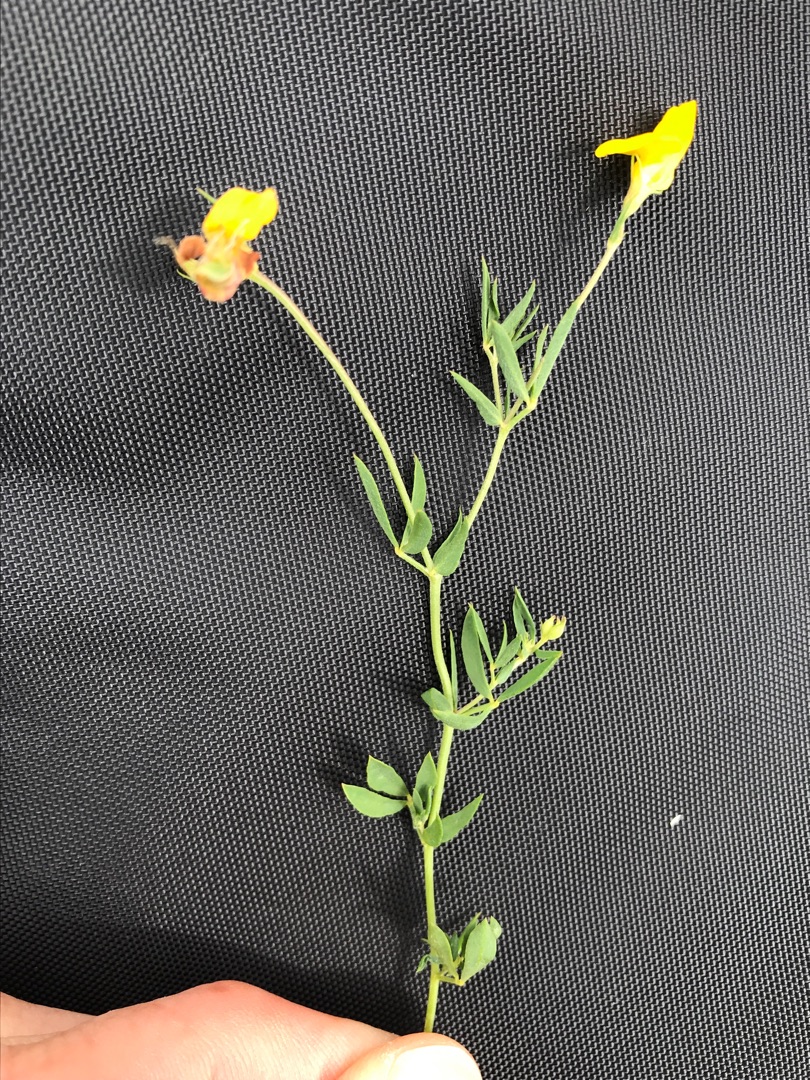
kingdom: Plantae
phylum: Tracheophyta
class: Magnoliopsida
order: Fabales
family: Fabaceae
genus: Lotus
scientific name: Lotus tenuis
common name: Smalbladet kællingetand
